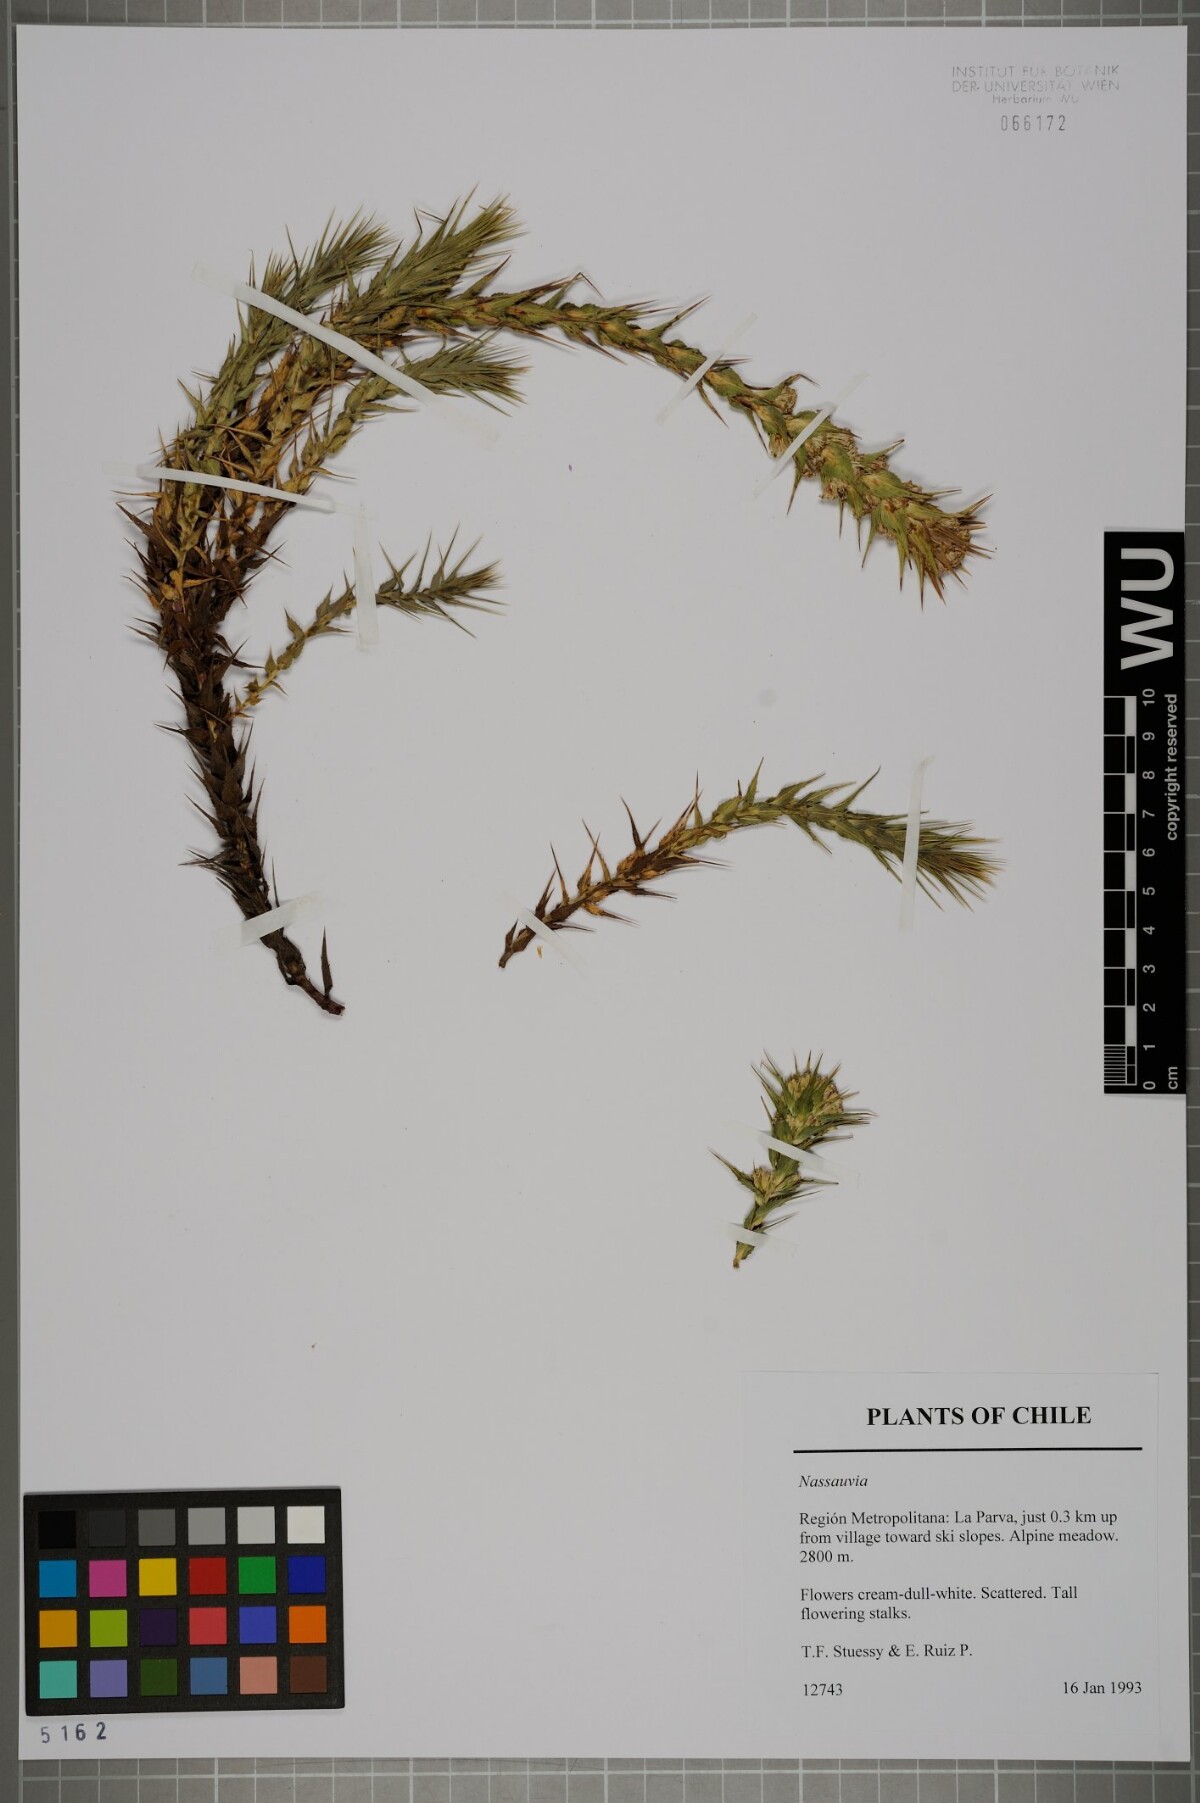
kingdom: Plantae
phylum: Tracheophyta
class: Magnoliopsida
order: Asterales
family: Asteraceae
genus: Nassauvia
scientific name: Nassauvia pyramidalis
